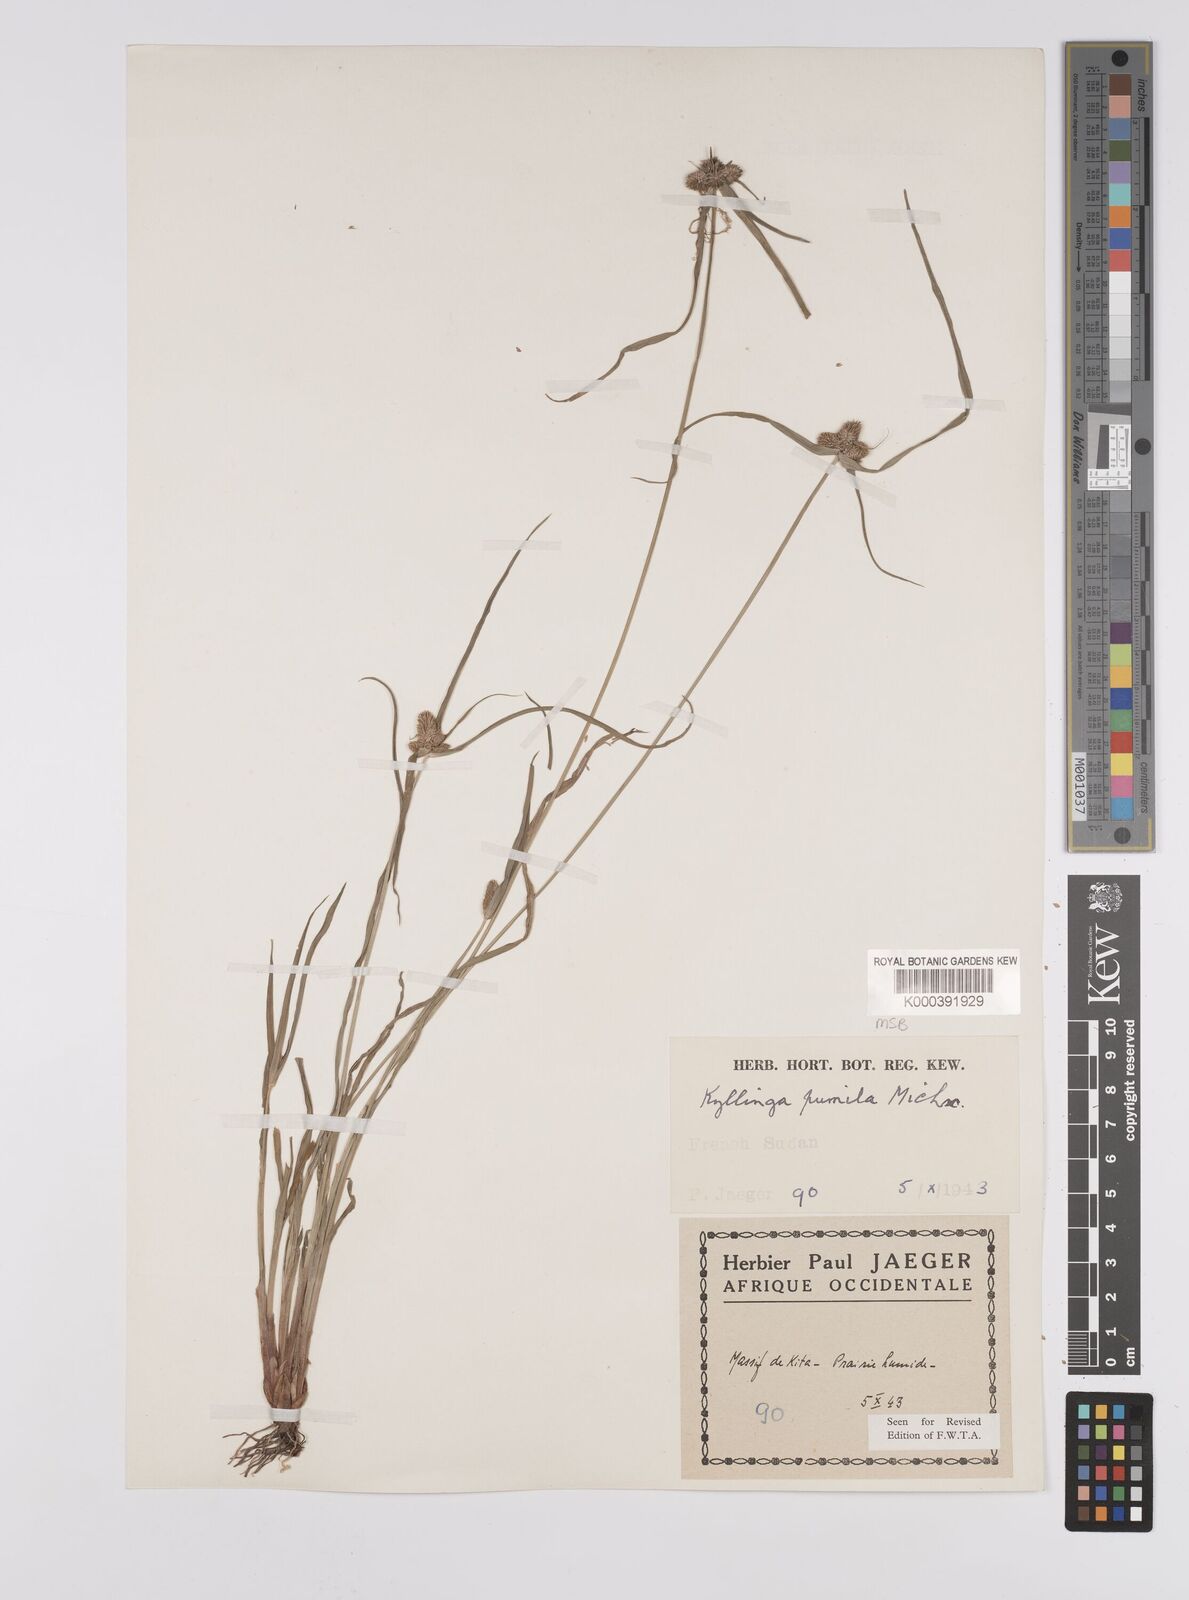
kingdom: Plantae
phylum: Tracheophyta
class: Liliopsida
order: Poales
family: Cyperaceae
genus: Cyperus
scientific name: Cyperus leptorhachis
